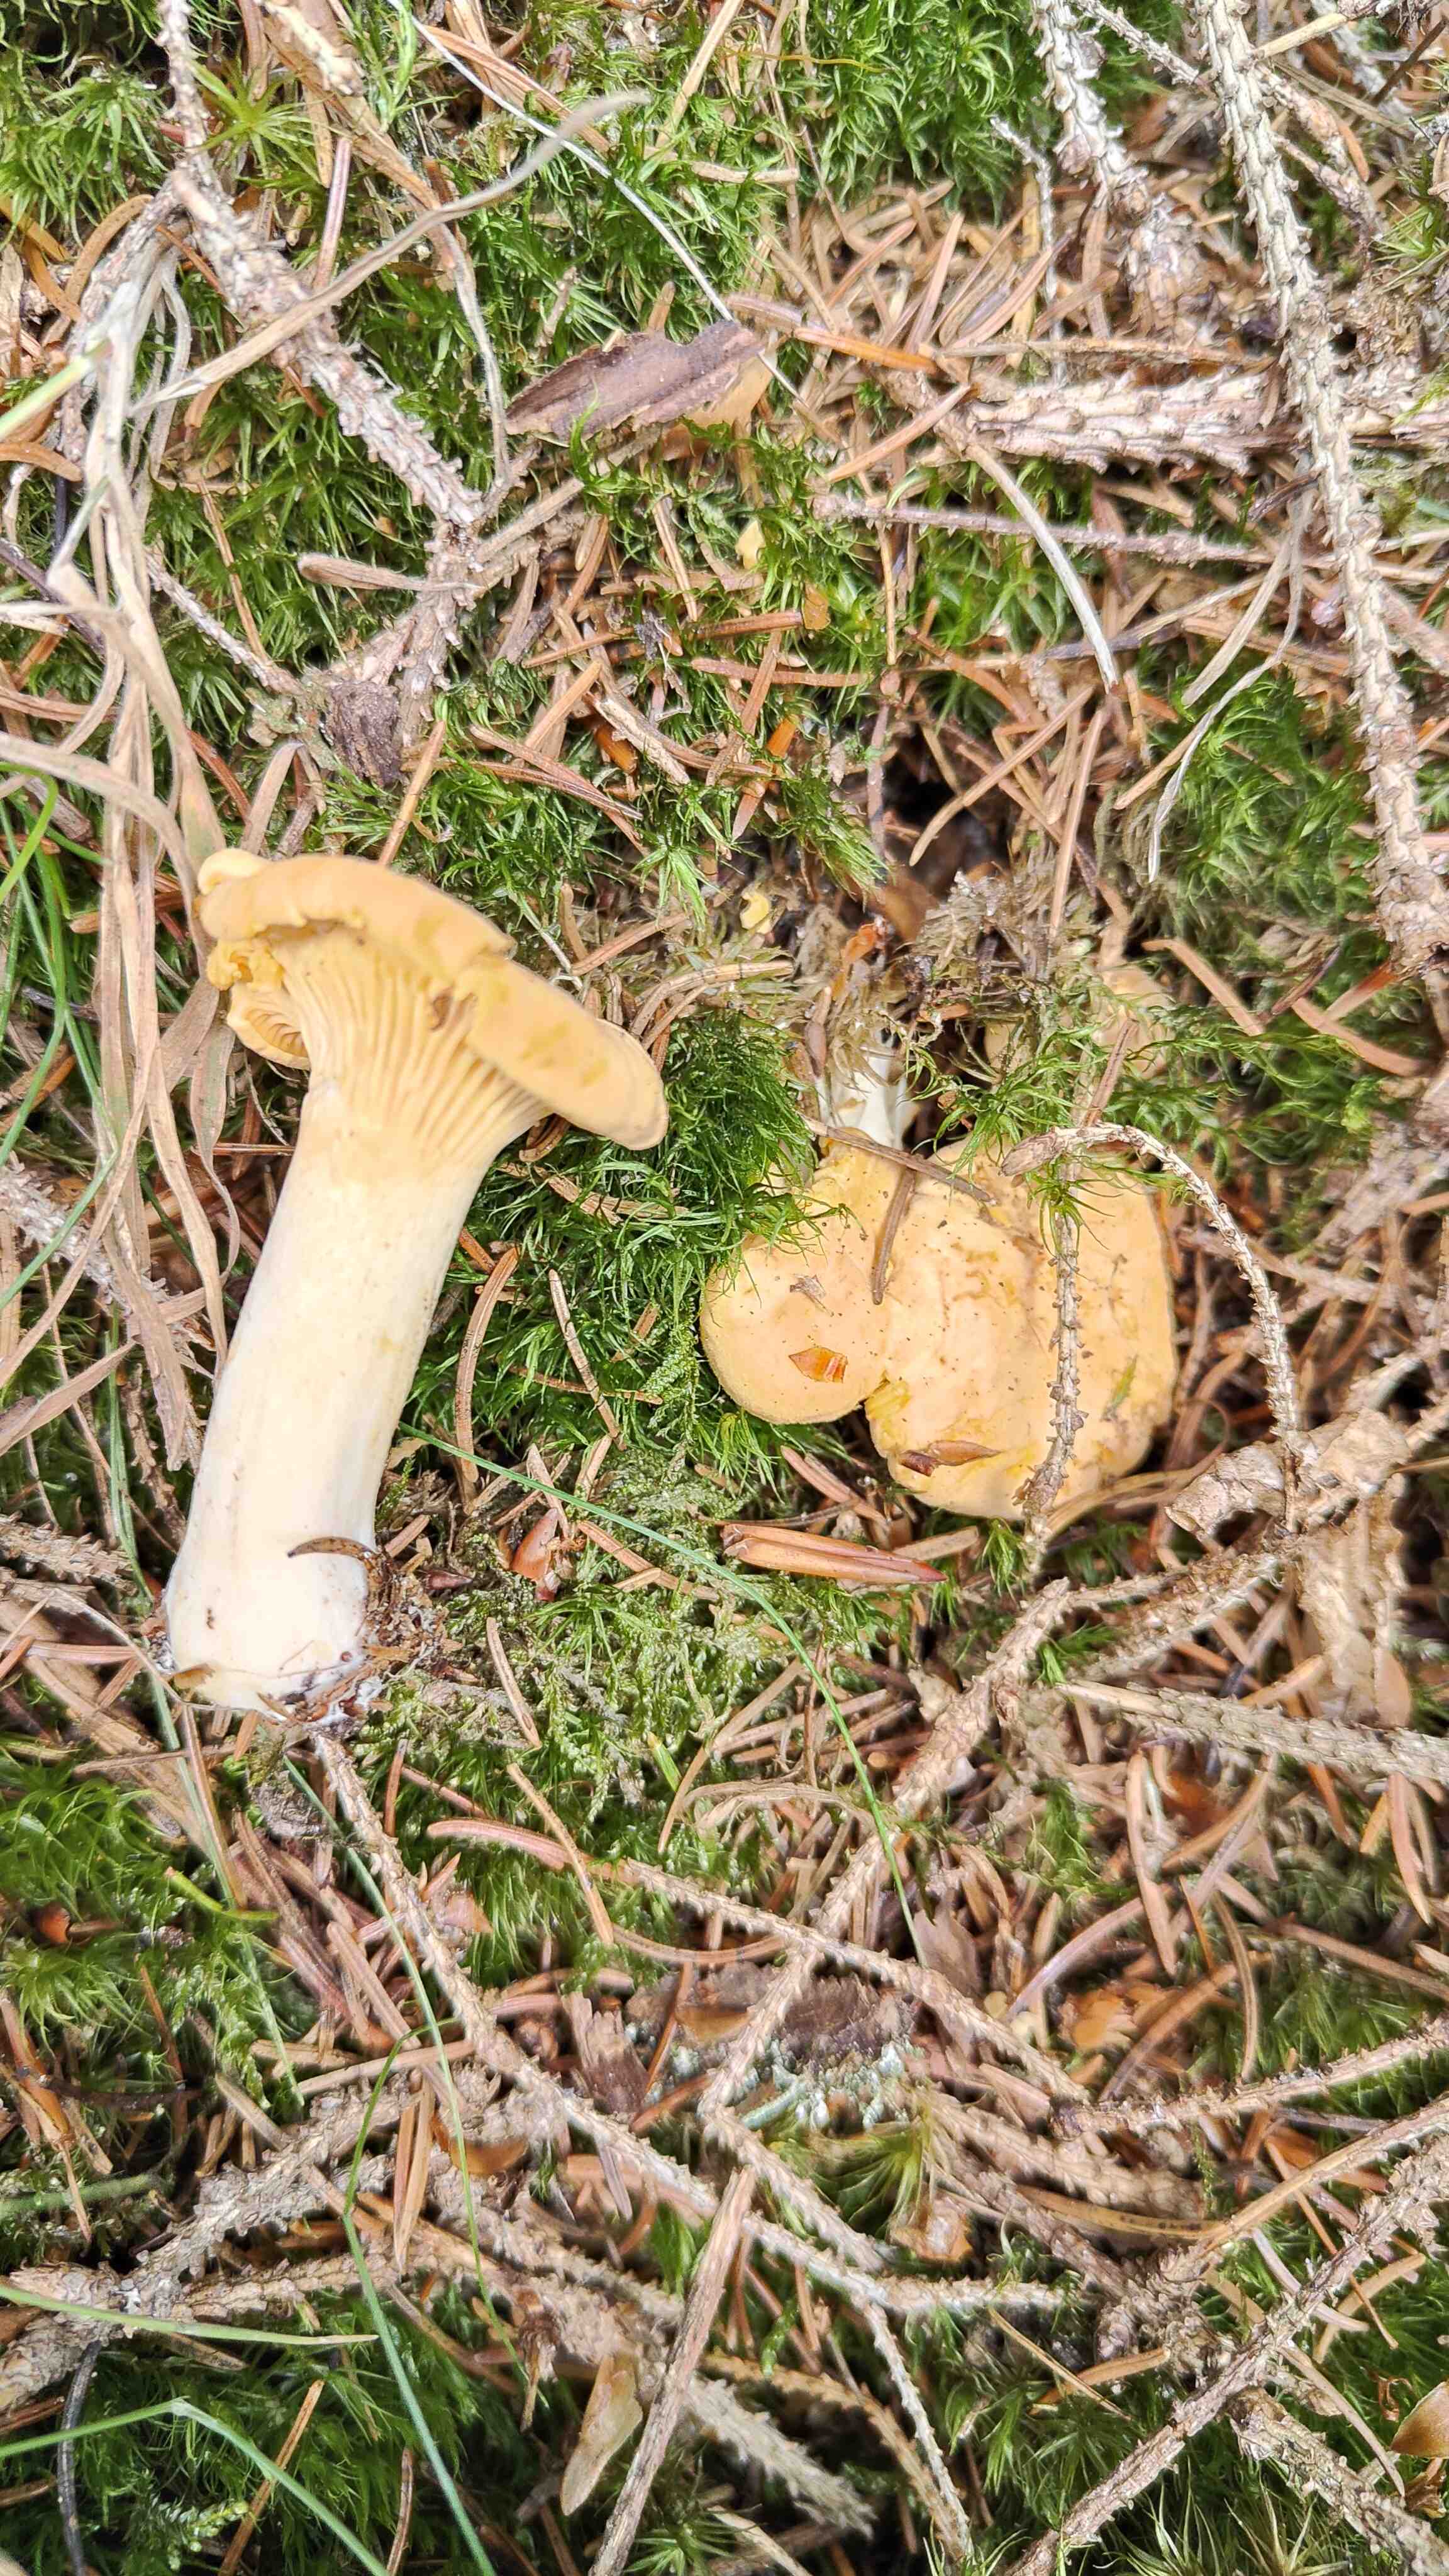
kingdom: Fungi
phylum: Basidiomycota
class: Agaricomycetes
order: Cantharellales
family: Hydnaceae
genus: Cantharellus
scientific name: Cantharellus pallens
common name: bleg kantarel
